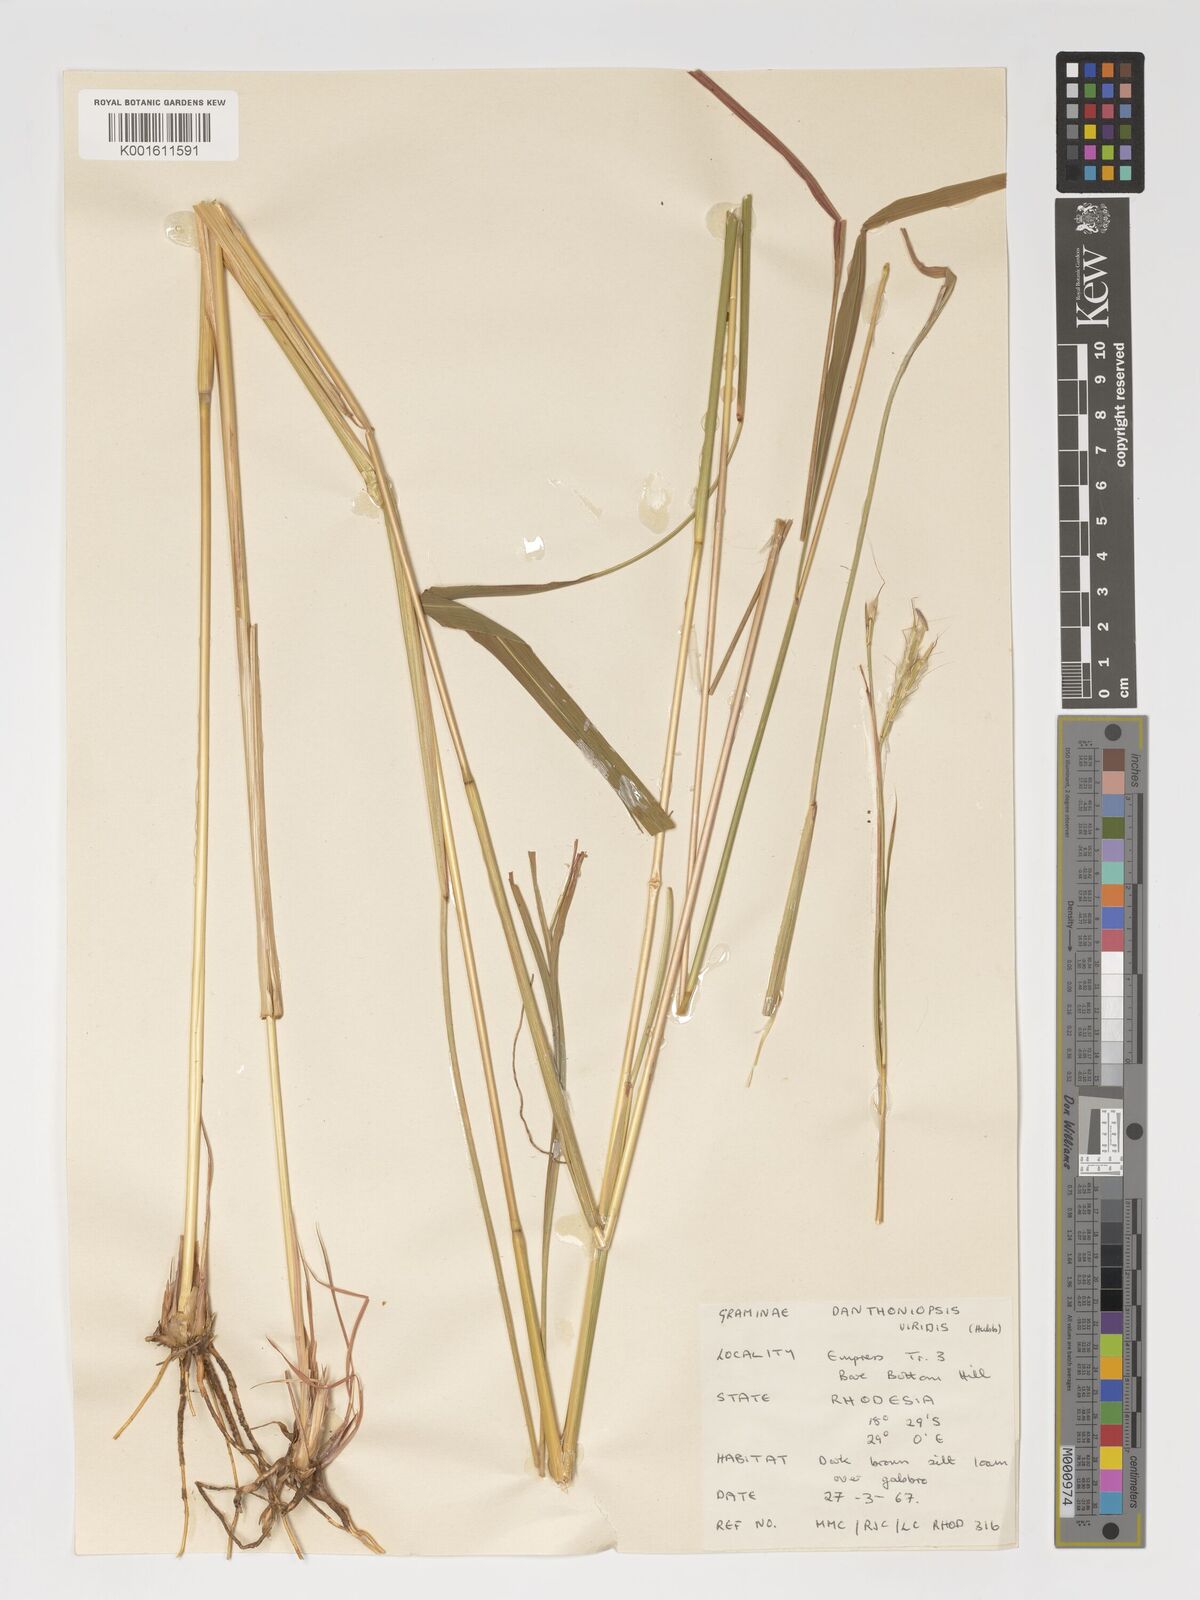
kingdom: Plantae
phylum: Tracheophyta
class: Liliopsida
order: Poales
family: Poaceae
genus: Danthoniopsis
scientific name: Danthoniopsis viridis
